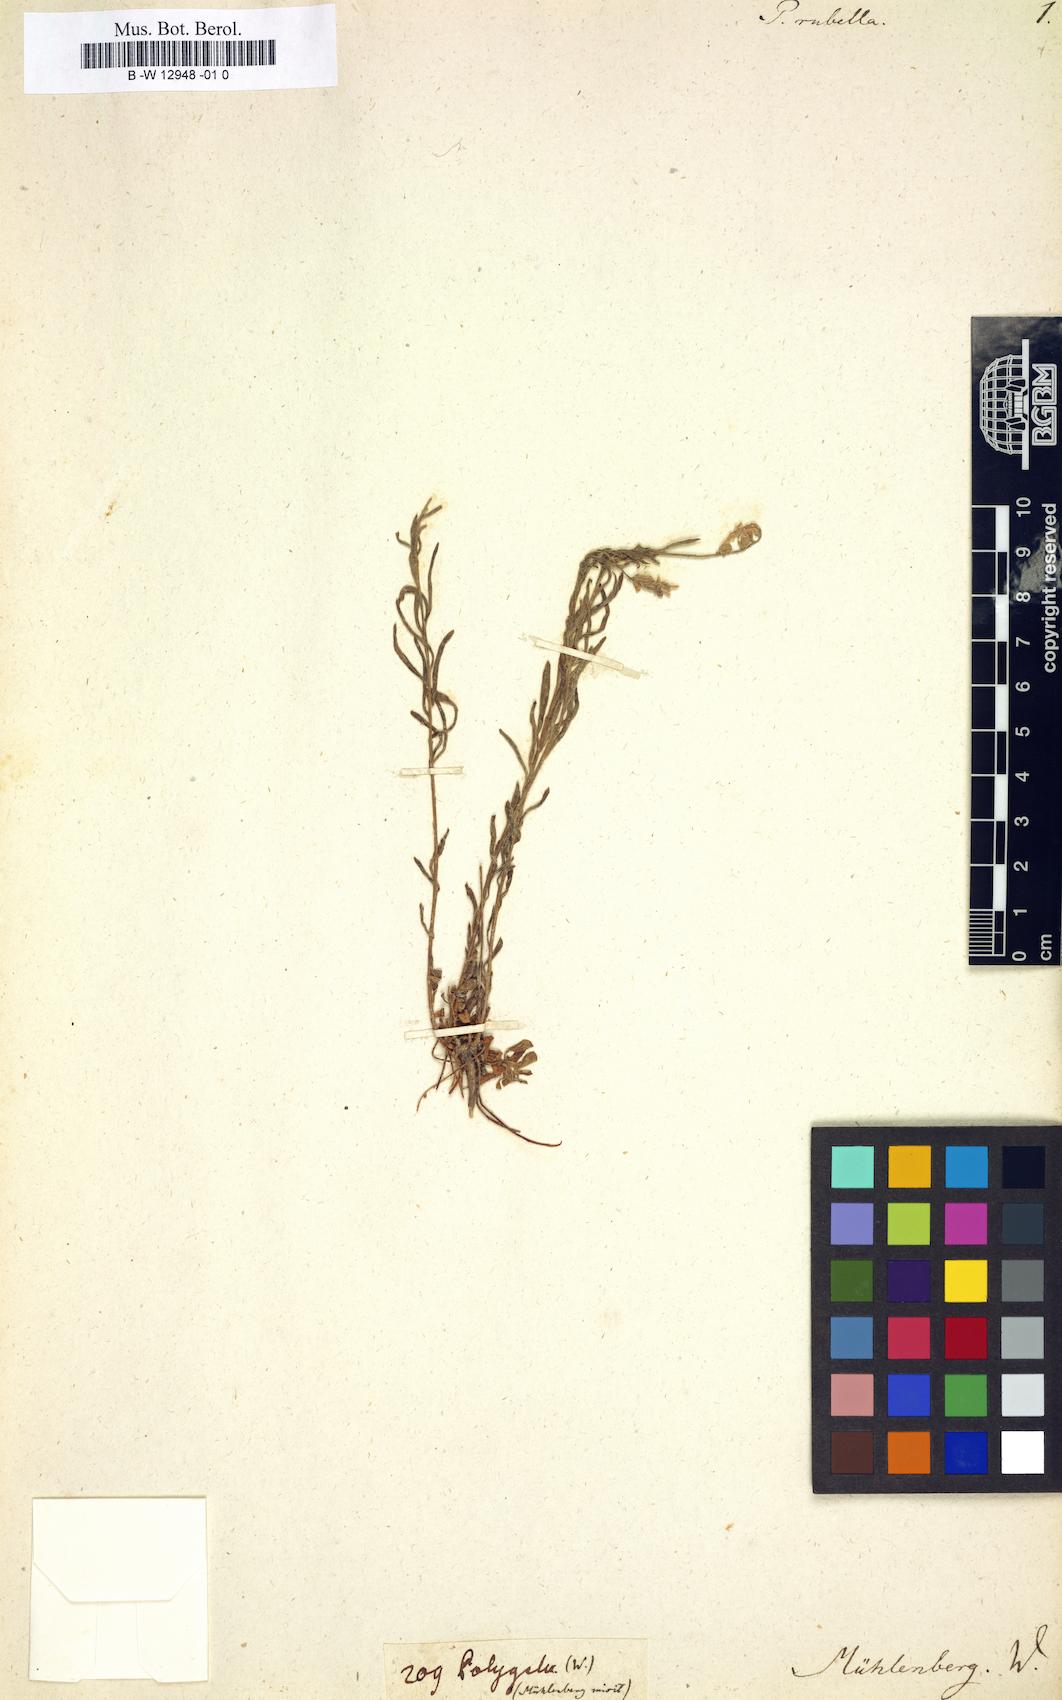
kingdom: Plantae
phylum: Tracheophyta
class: Magnoliopsida
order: Fabales
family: Polygalaceae
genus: Polygala
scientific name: Polygala polygama
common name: Bitter milkwort
